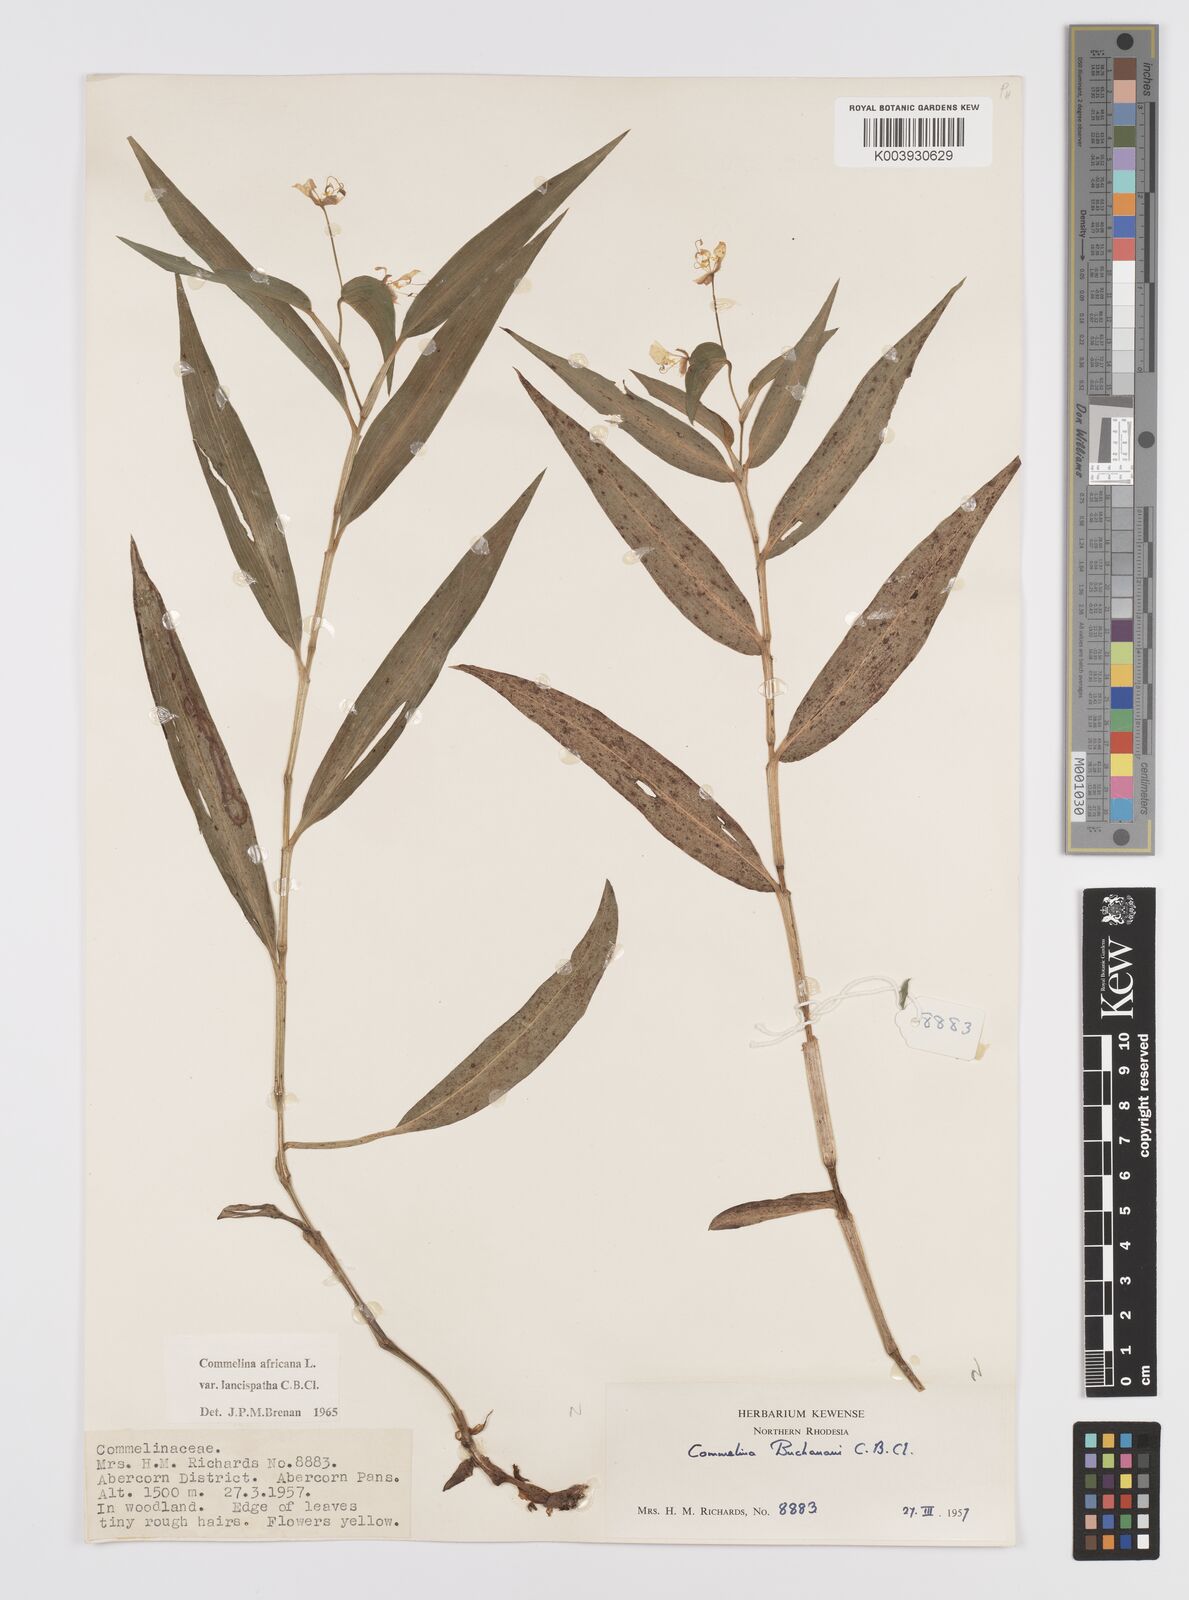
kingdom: Plantae
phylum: Tracheophyta
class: Liliopsida
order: Commelinales
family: Commelinaceae
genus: Commelina
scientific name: Commelina africana
